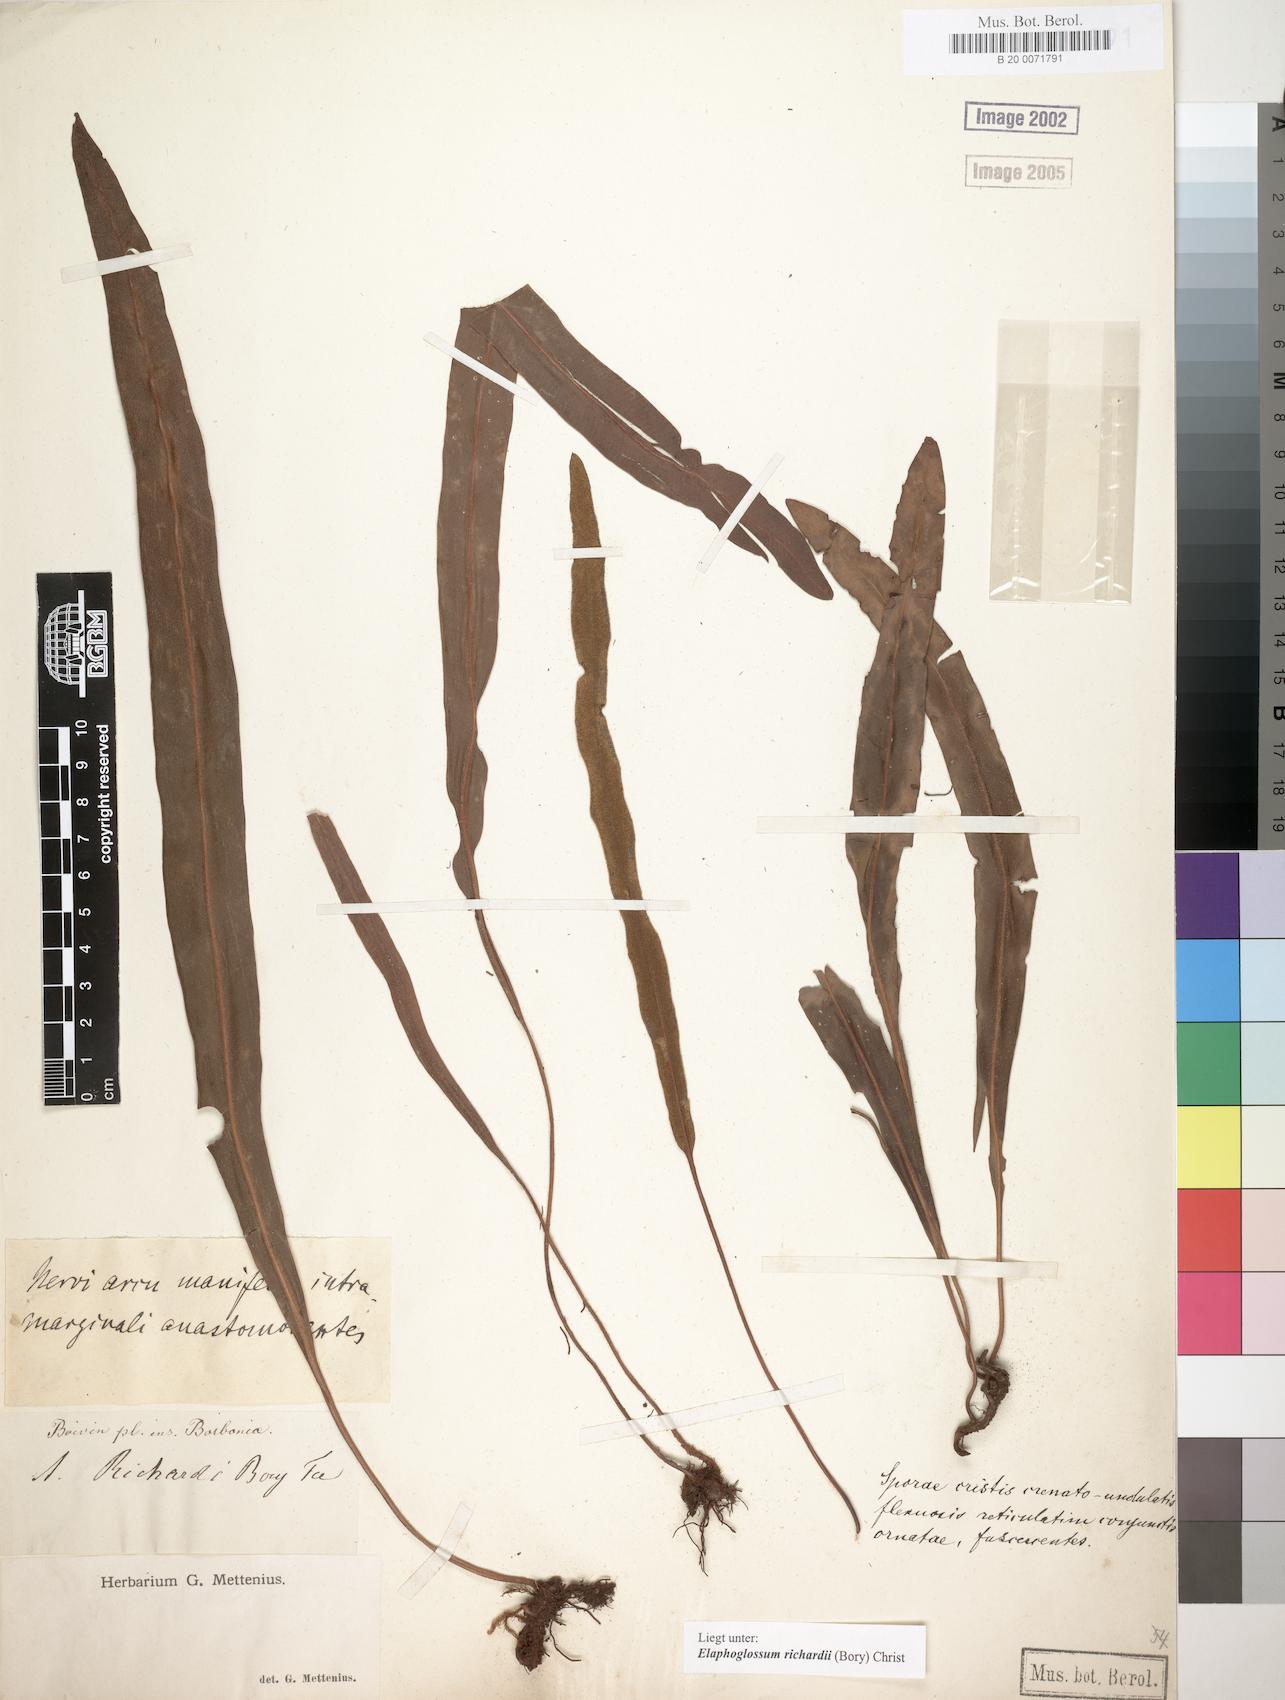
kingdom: Plantae
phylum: Tracheophyta
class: Polypodiopsida
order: Polypodiales
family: Dryopteridaceae
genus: Elaphoglossum
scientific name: Elaphoglossum richardii
